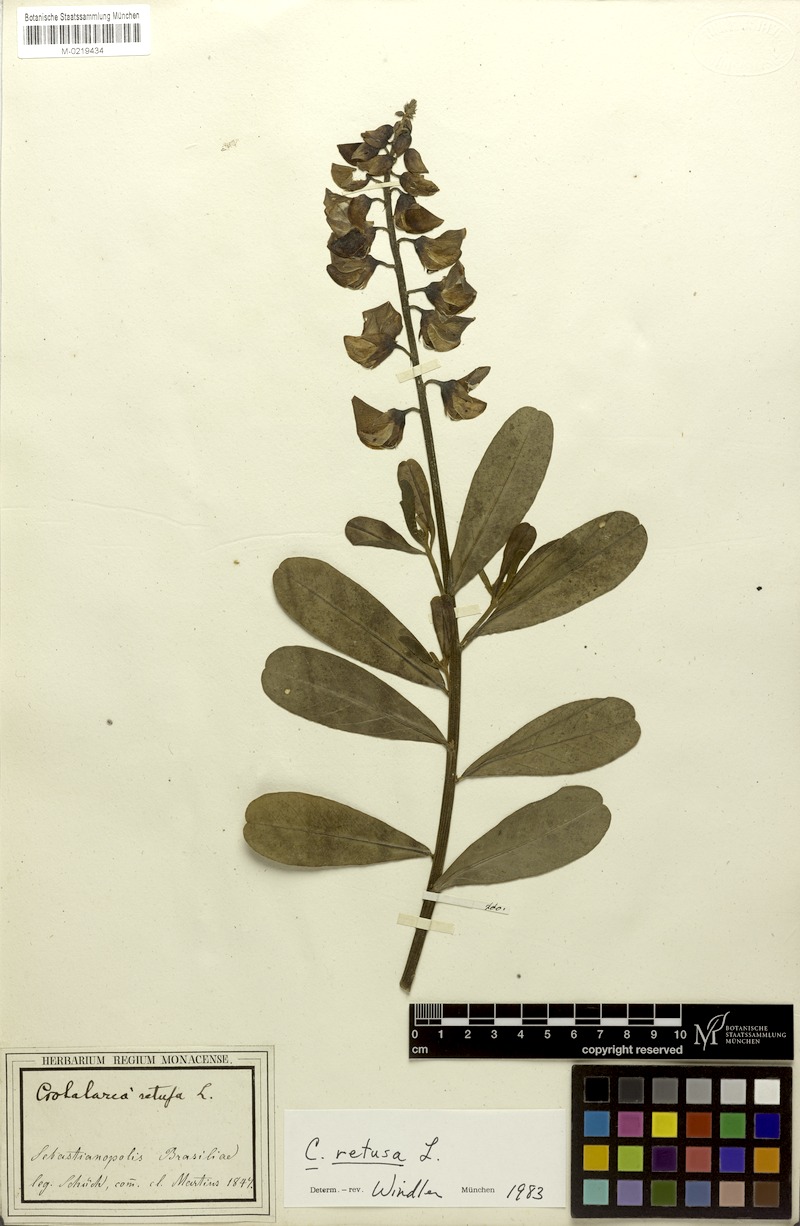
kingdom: Plantae
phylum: Tracheophyta
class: Magnoliopsida
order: Fabales
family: Fabaceae
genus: Crotalaria
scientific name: Crotalaria retusa
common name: Rattleweed
